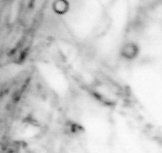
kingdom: Chromista
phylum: Ochrophyta
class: Bacillariophyceae
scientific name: Bacillariophyceae
